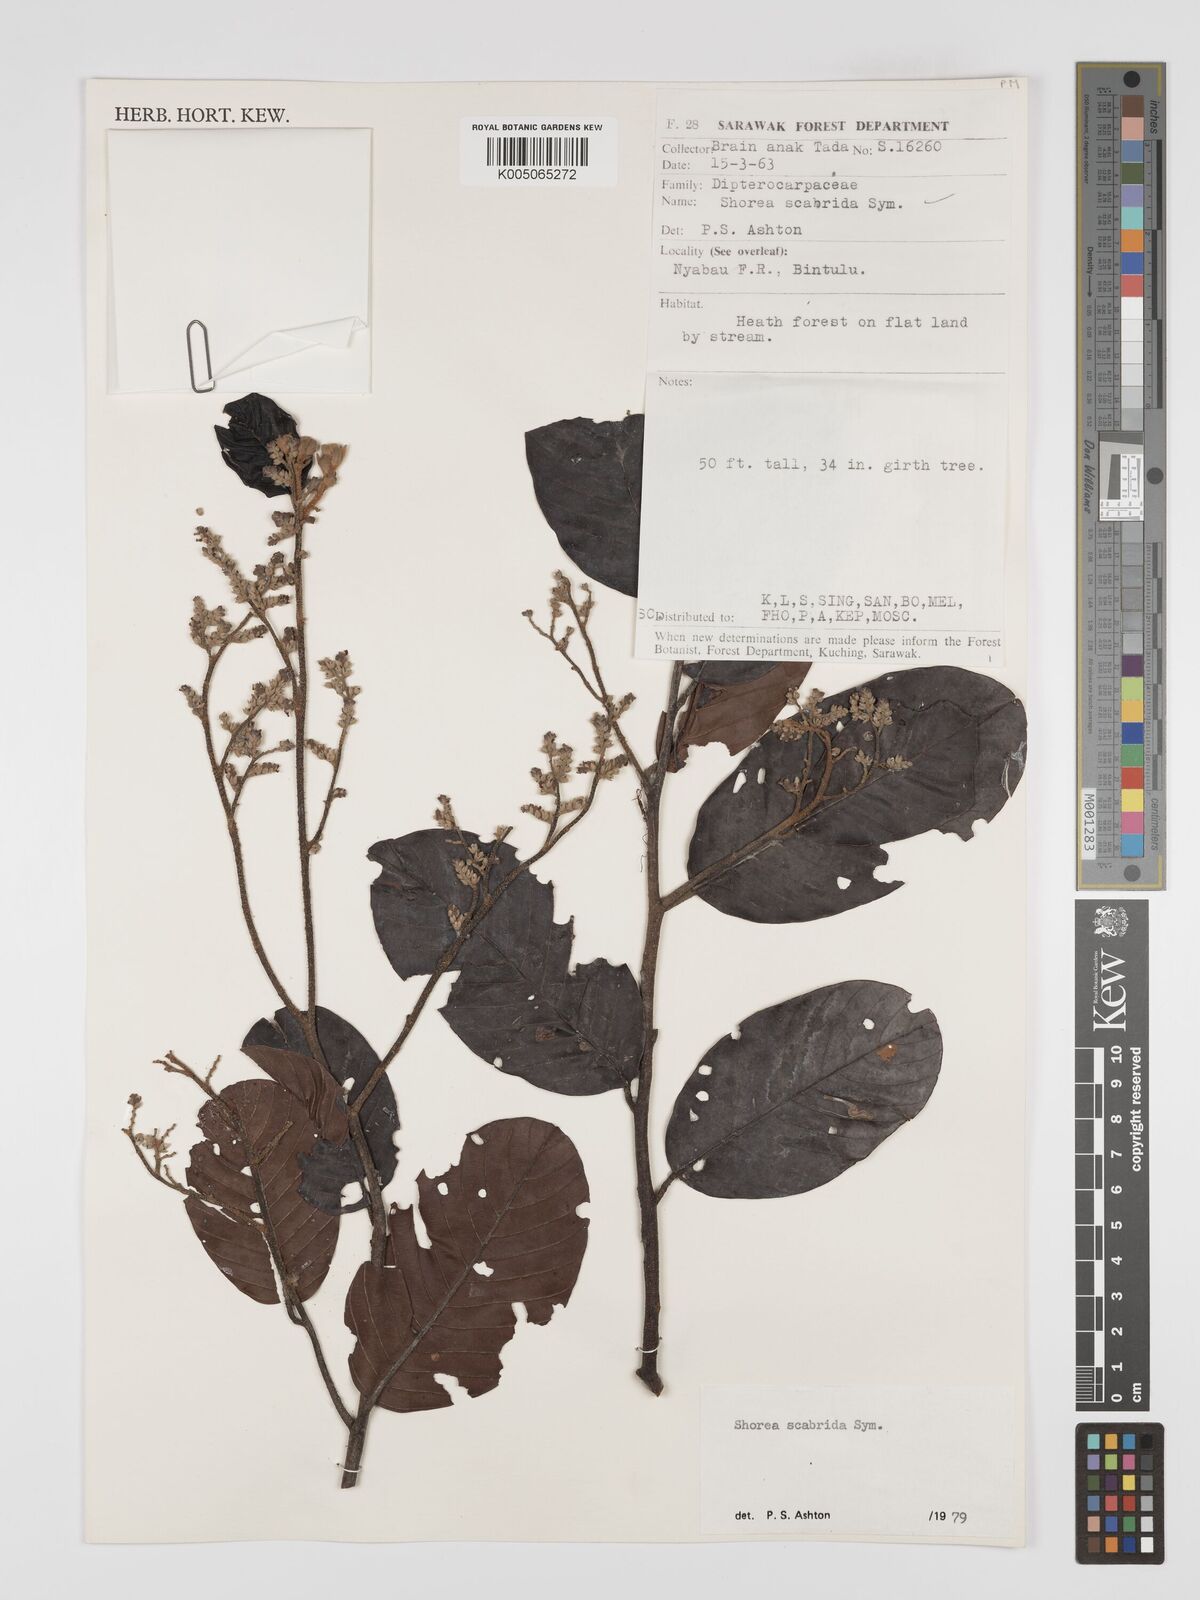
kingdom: Plantae
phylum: Tracheophyta
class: Magnoliopsida
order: Malvales
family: Dipterocarpaceae
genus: Shorea
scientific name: Shorea scabrida
